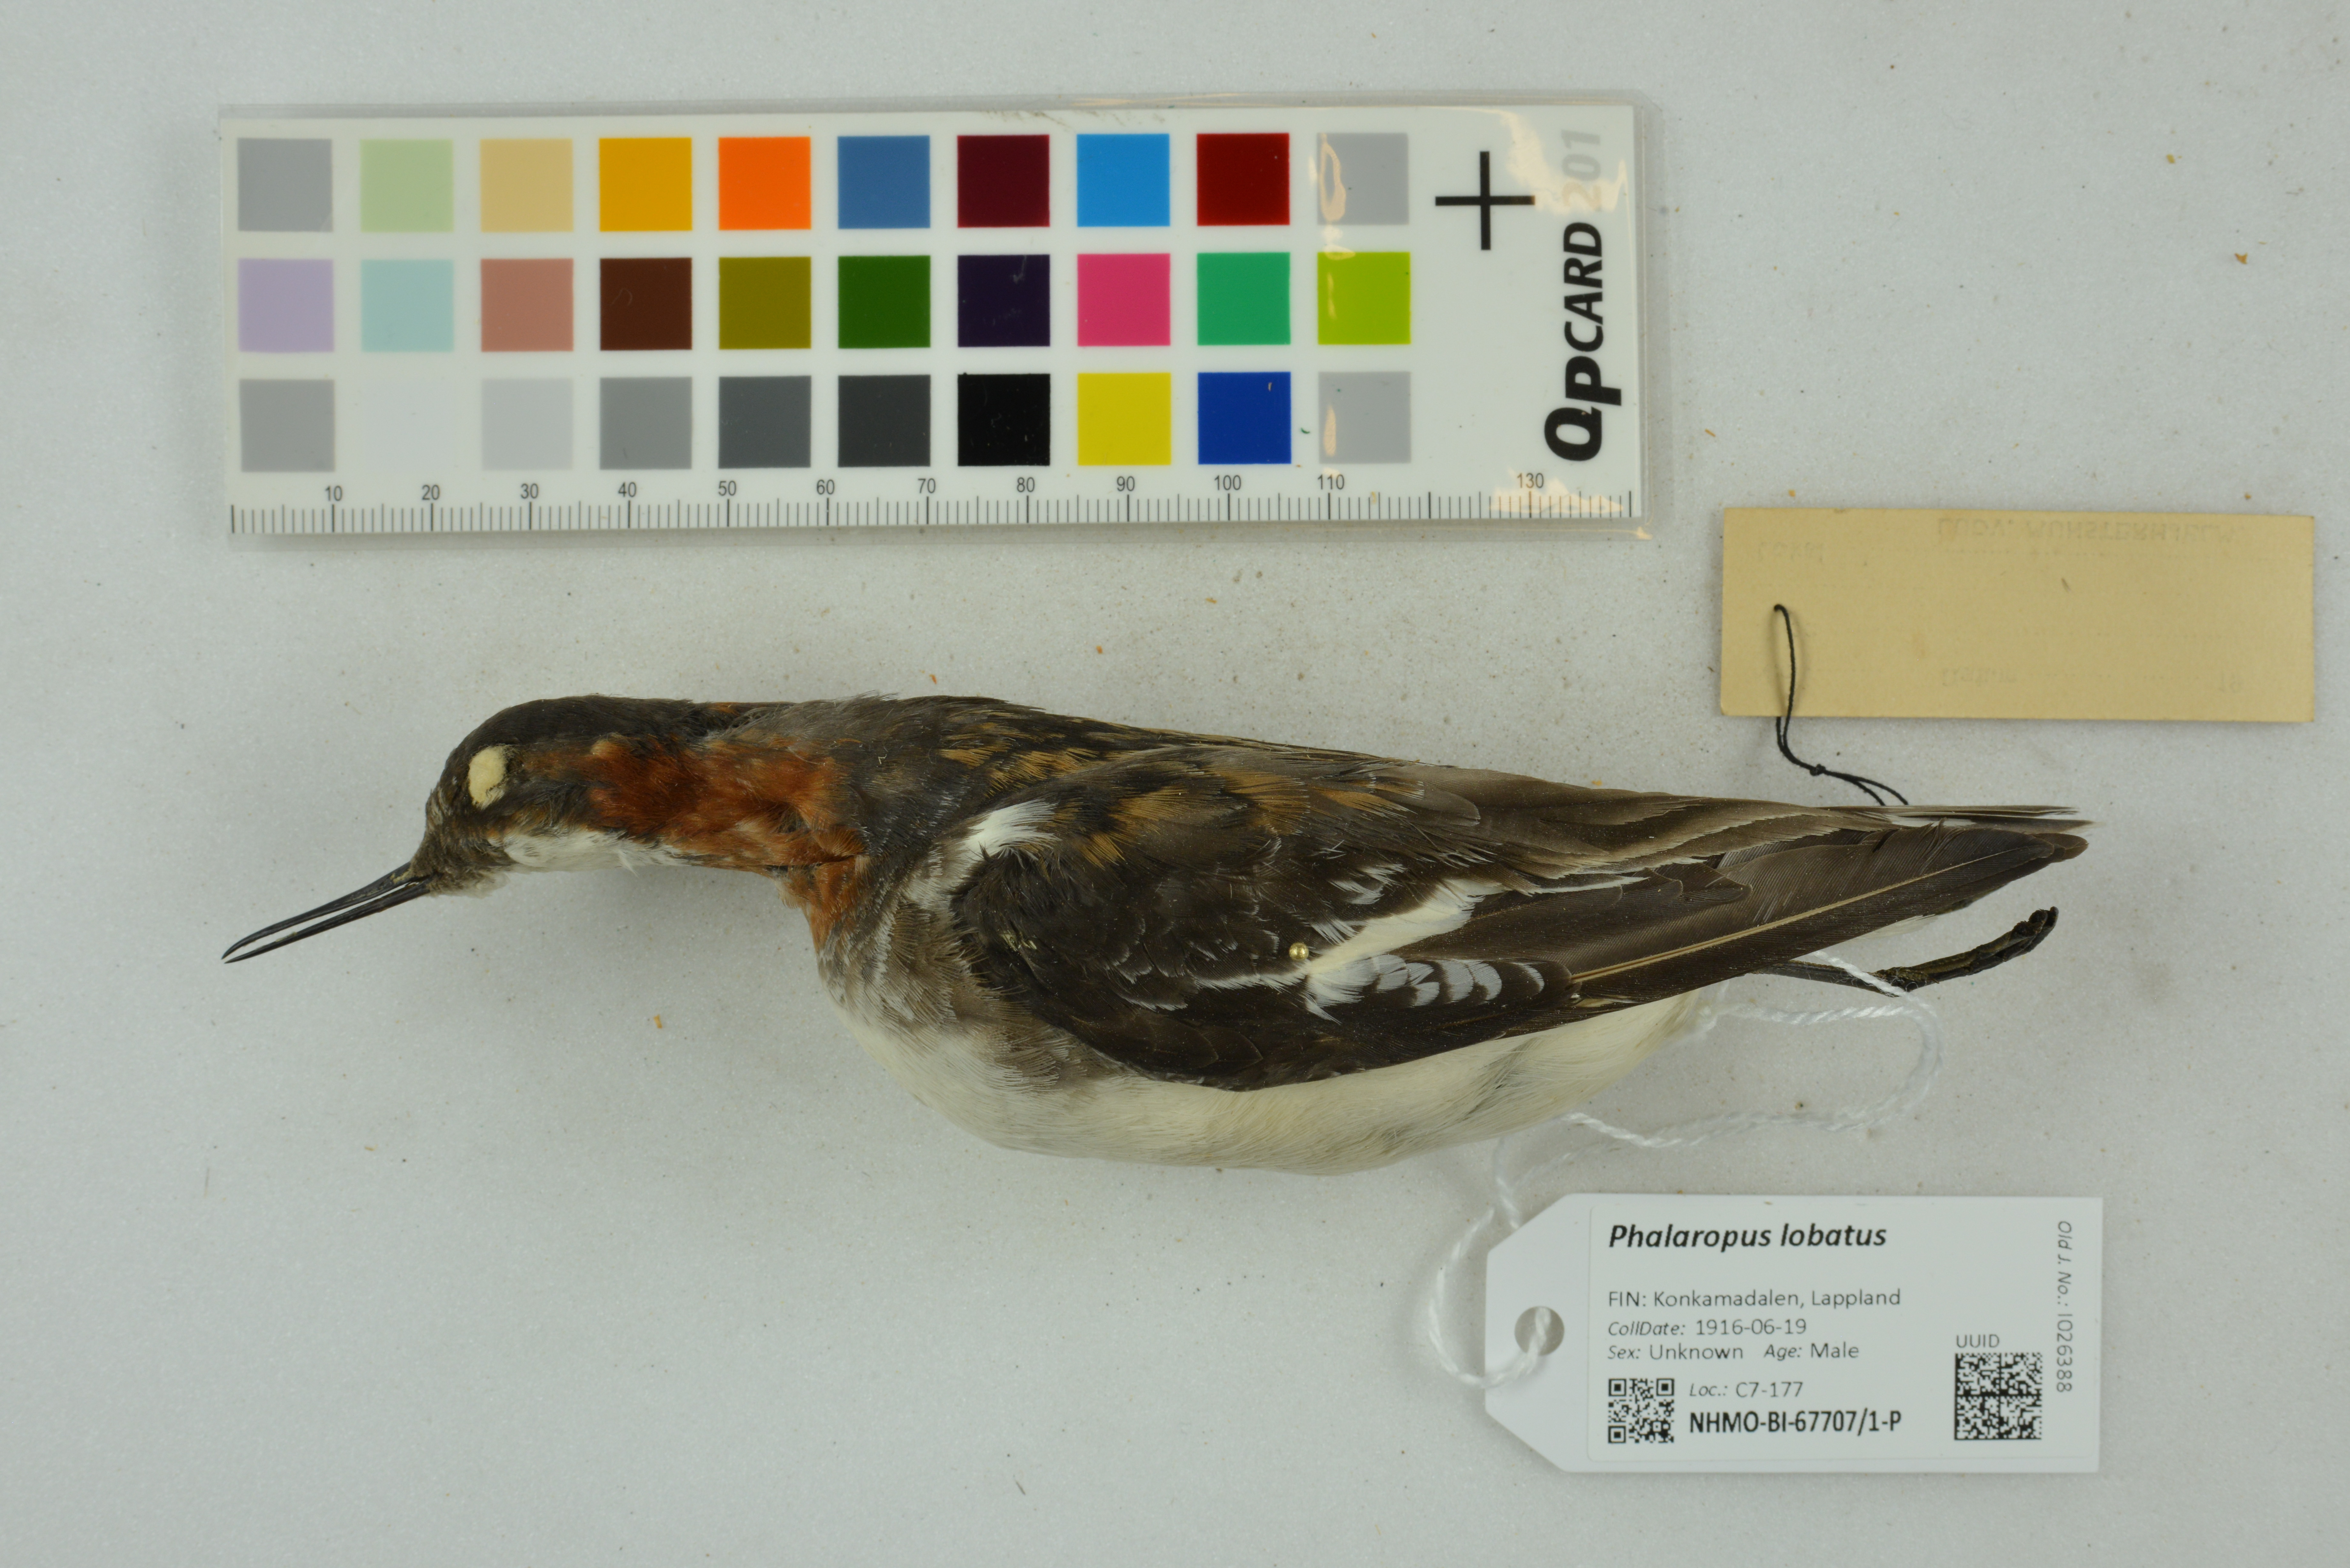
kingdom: Animalia
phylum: Chordata
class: Aves
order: Charadriiformes
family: Scolopacidae
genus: Phalaropus
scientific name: Phalaropus lobatus
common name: Red-necked phalarope
